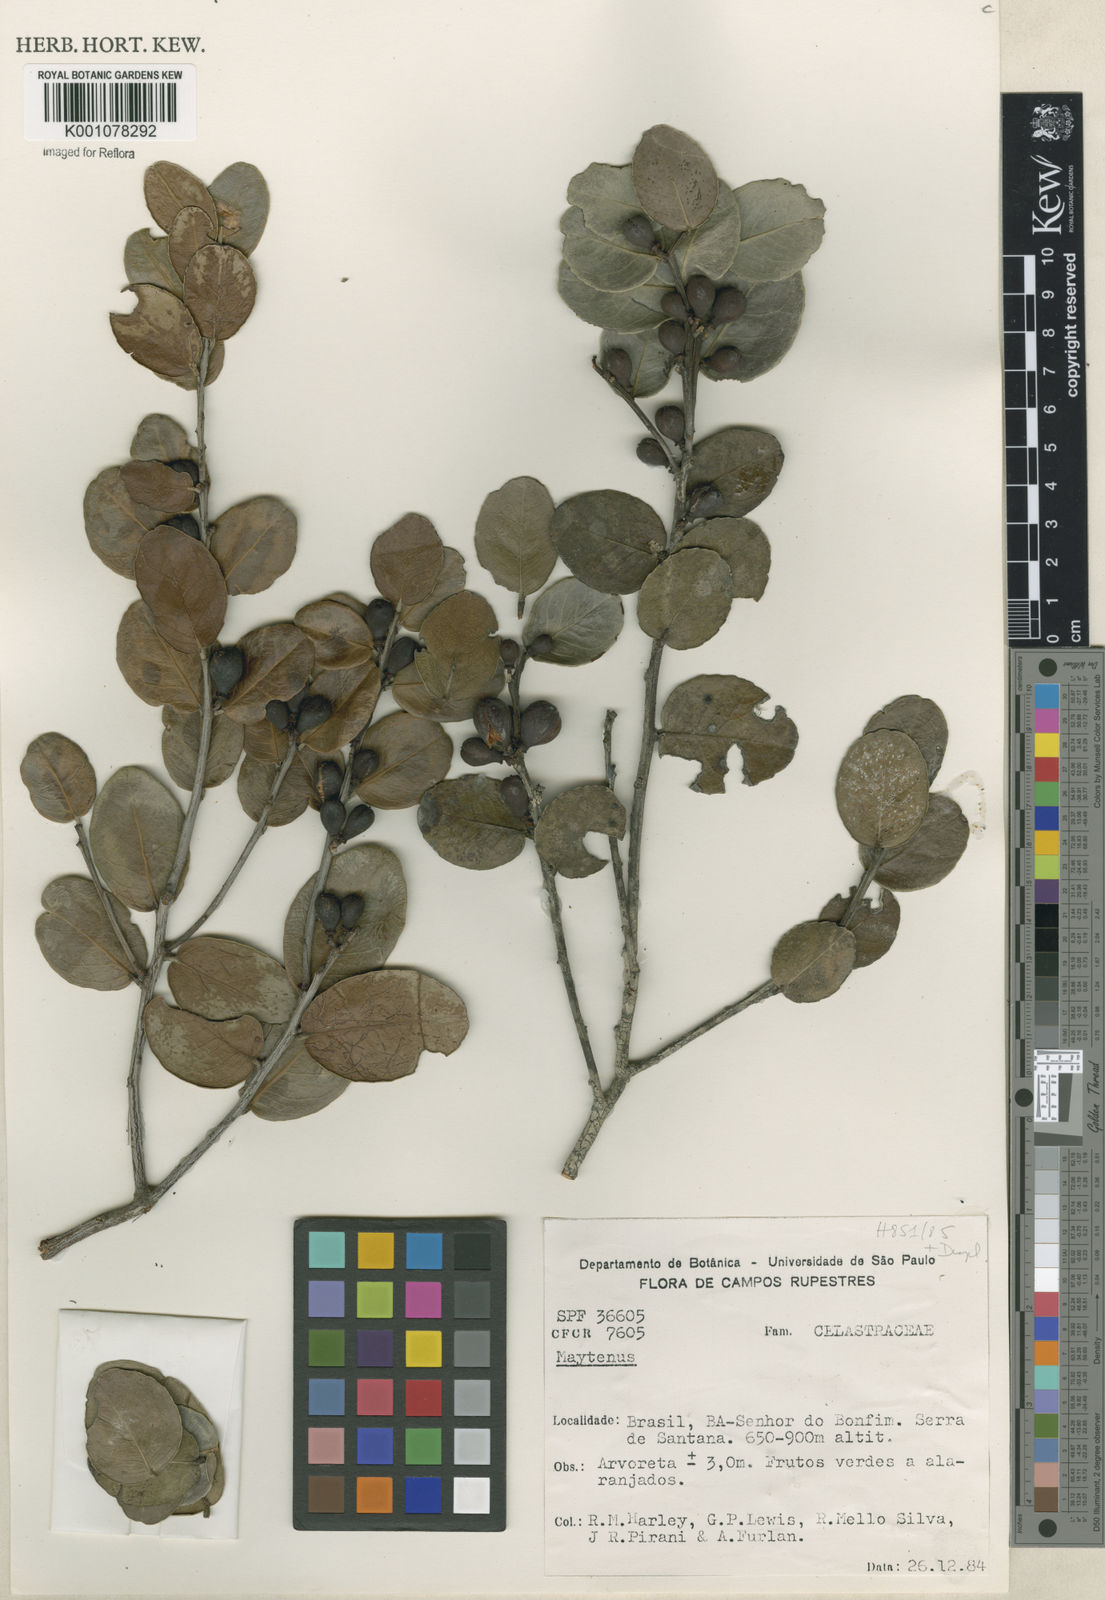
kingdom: Plantae
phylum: Tracheophyta
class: Magnoliopsida
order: Celastrales
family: Celastraceae
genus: Maytenus
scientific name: Maytenus
